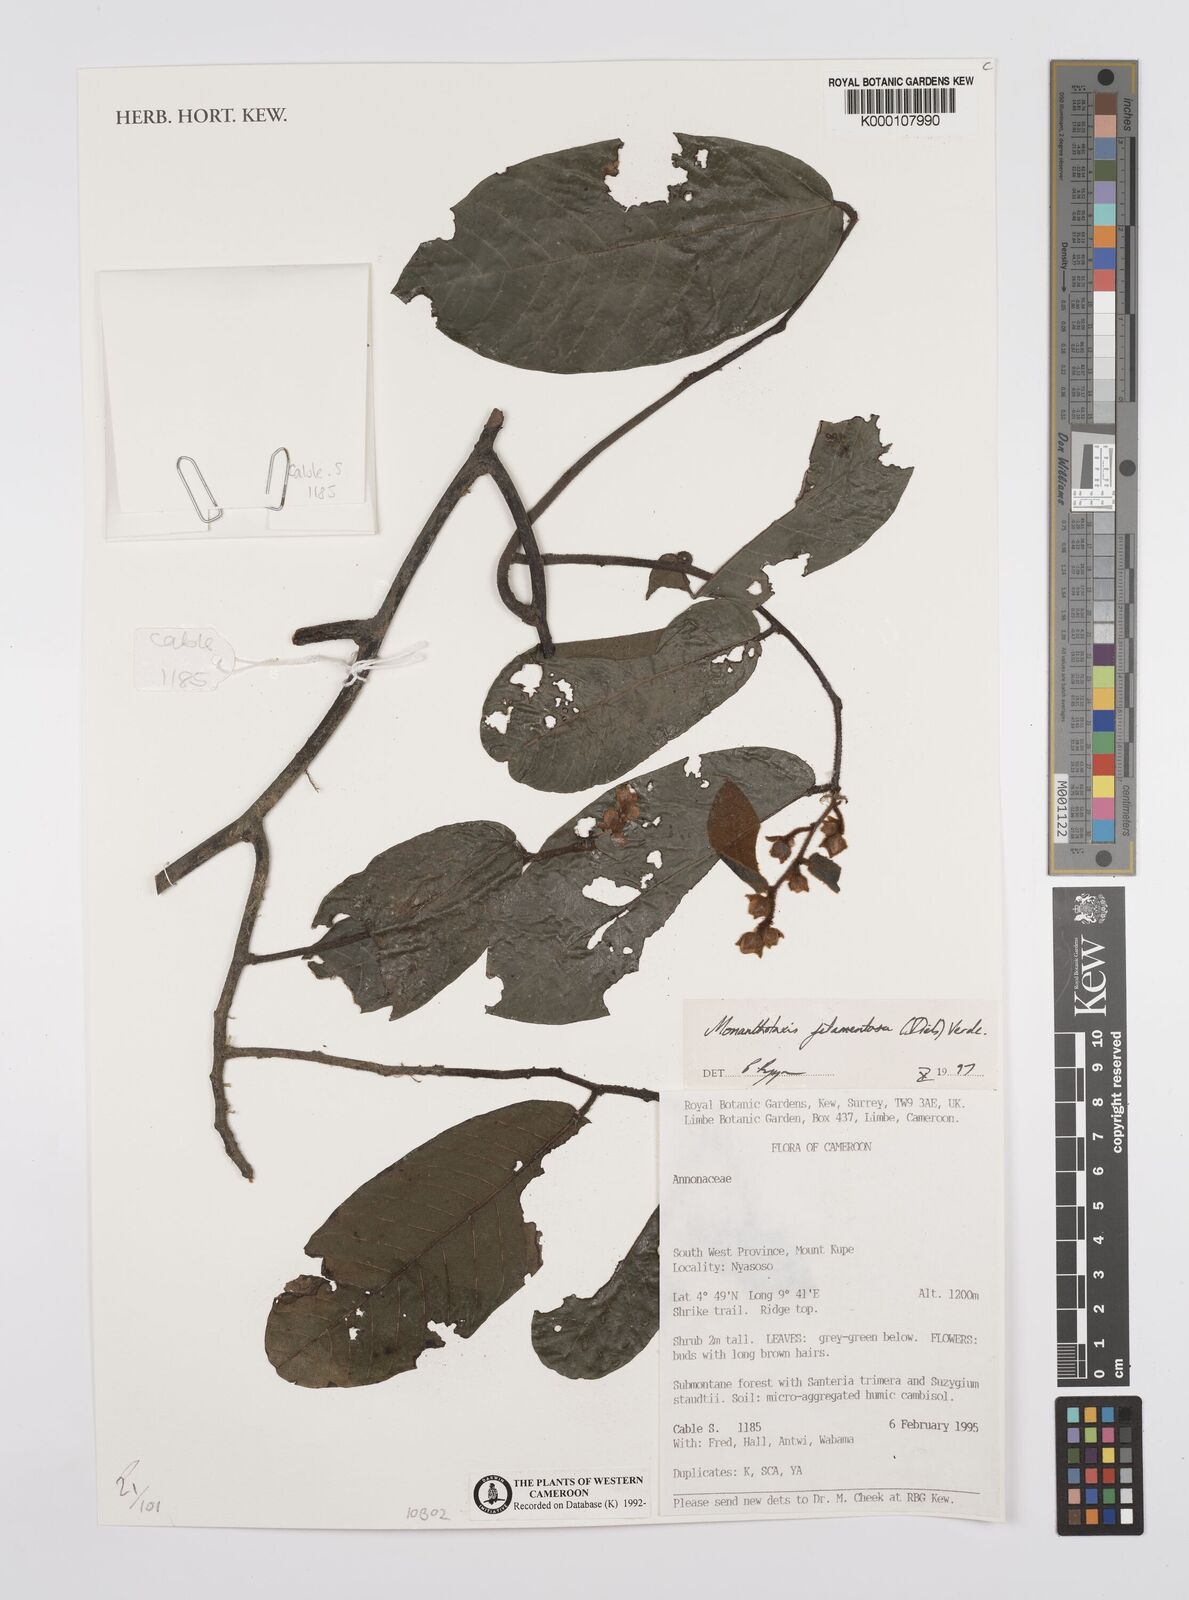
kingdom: Plantae
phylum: Tracheophyta
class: Magnoliopsida
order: Magnoliales
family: Annonaceae
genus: Monanthotaxis
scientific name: Monanthotaxis filamentosa
